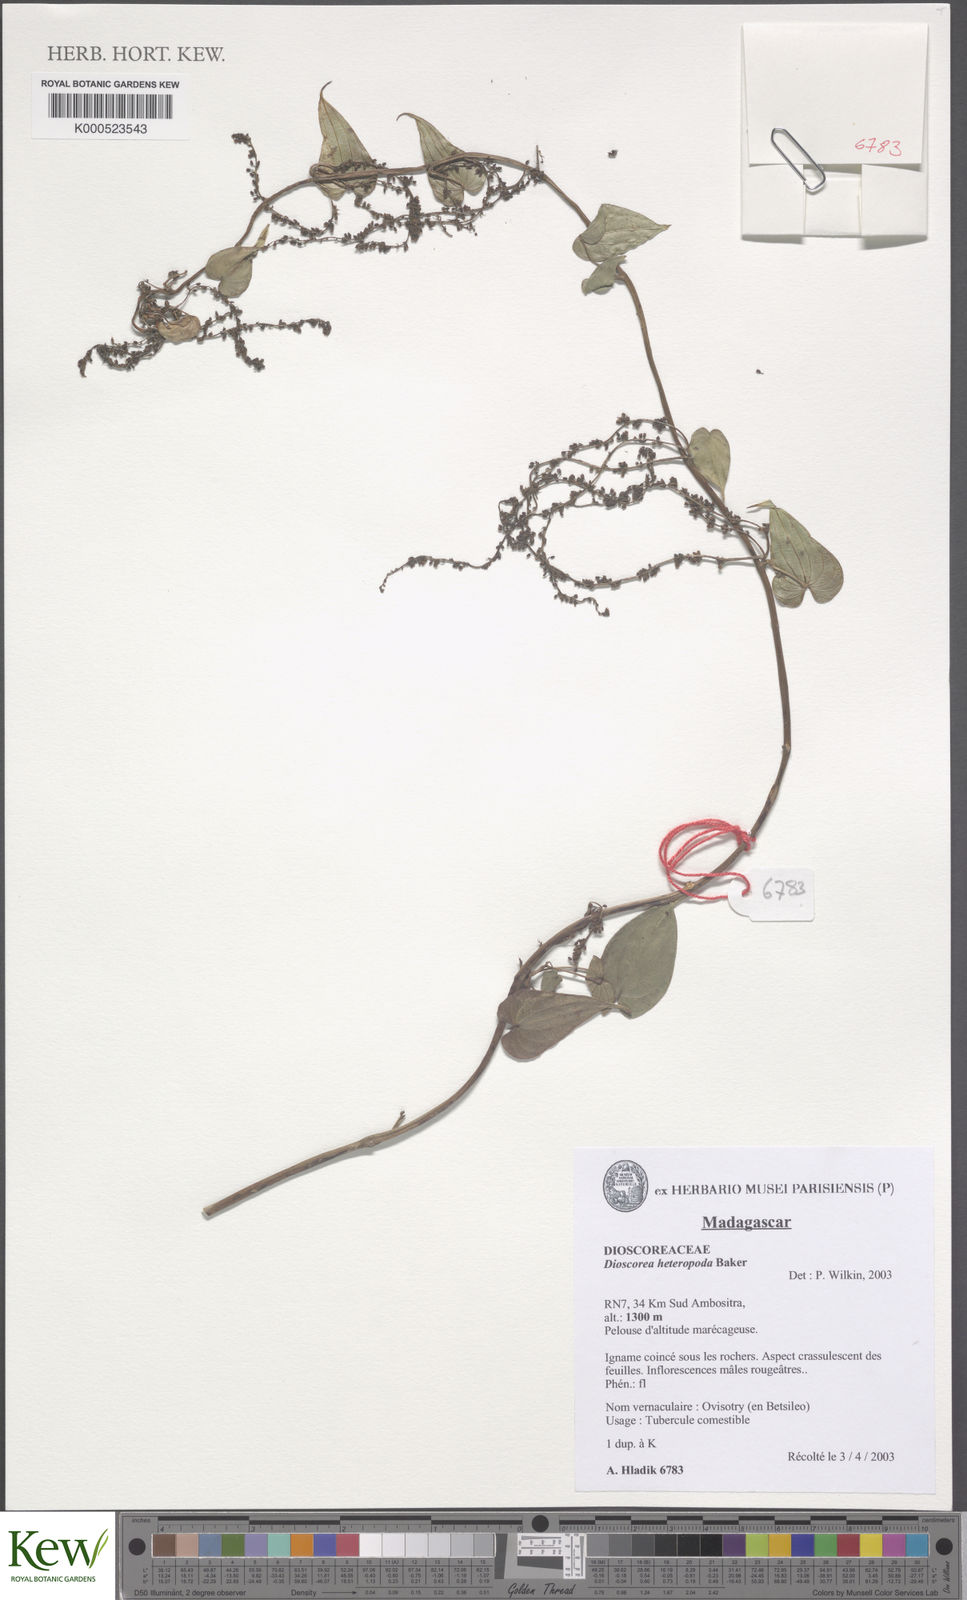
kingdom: Plantae
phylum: Tracheophyta
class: Liliopsida
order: Dioscoreales
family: Dioscoreaceae
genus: Dioscorea
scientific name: Dioscorea heteropoda
